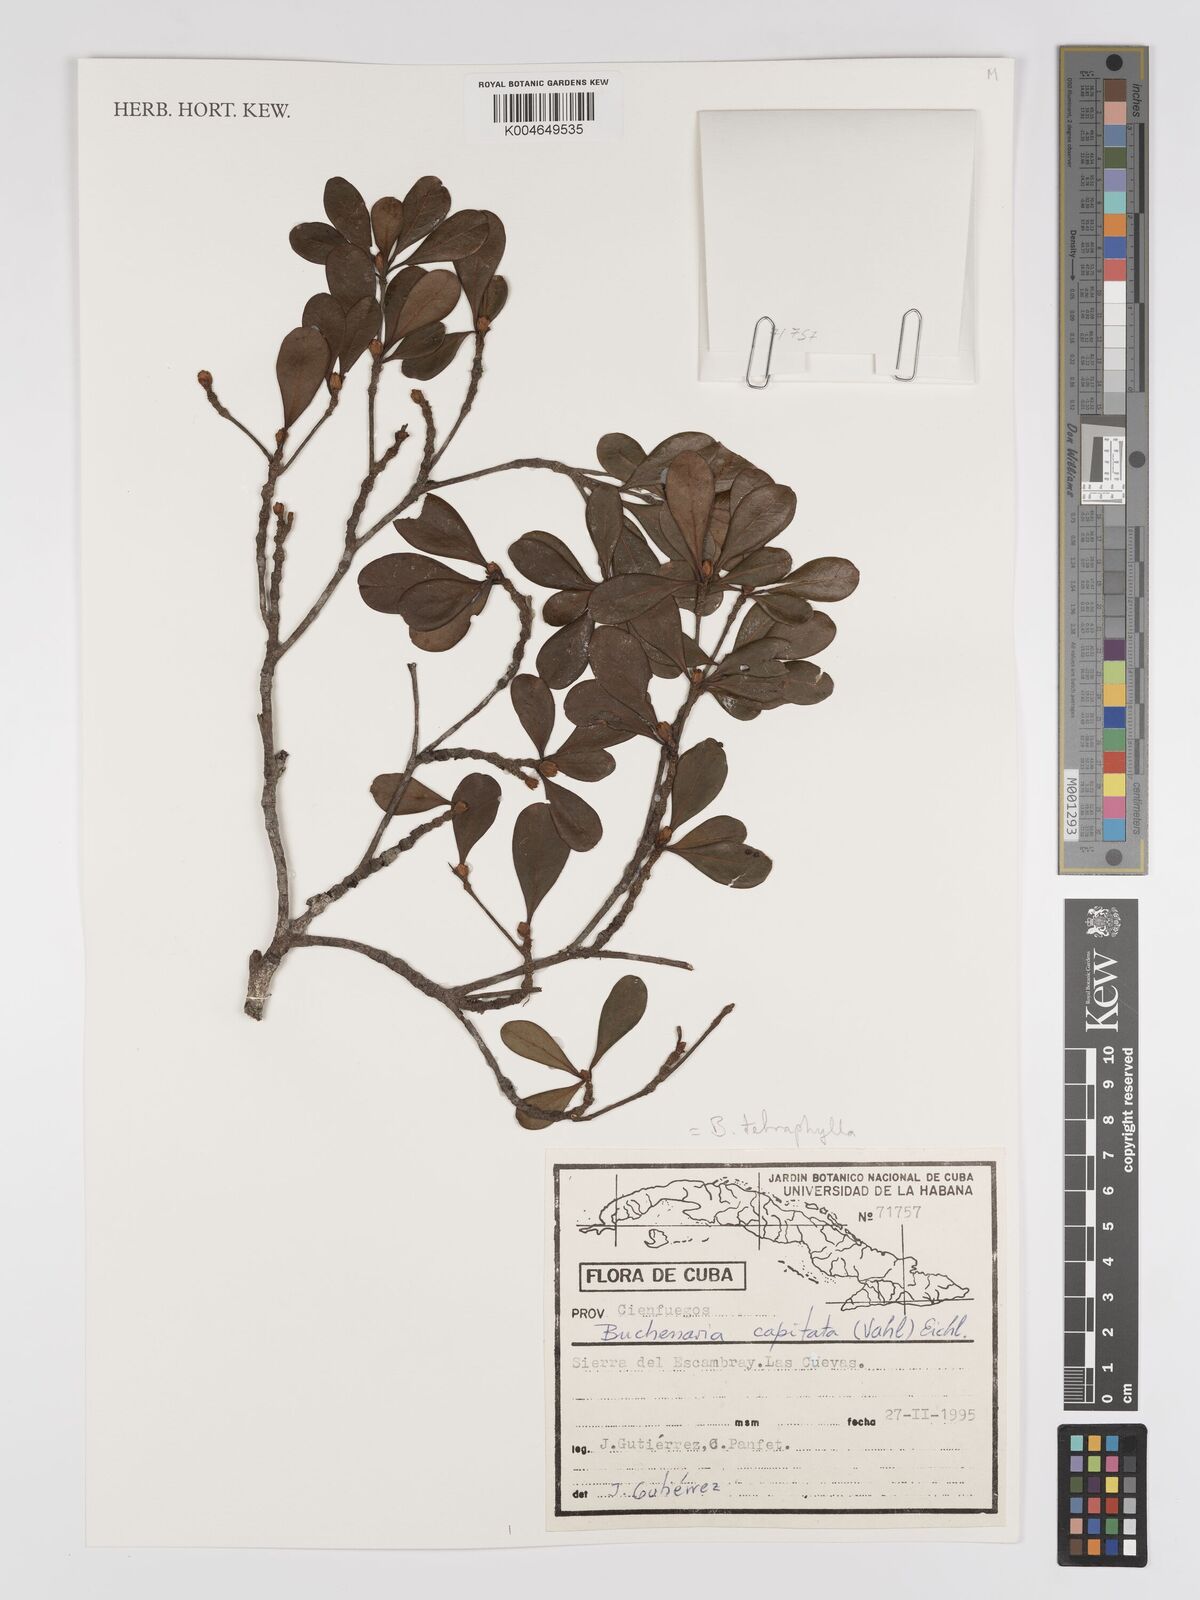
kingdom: Plantae
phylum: Tracheophyta
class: Magnoliopsida
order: Myrtales
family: Combretaceae
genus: Terminalia
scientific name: Terminalia tetraphylla
